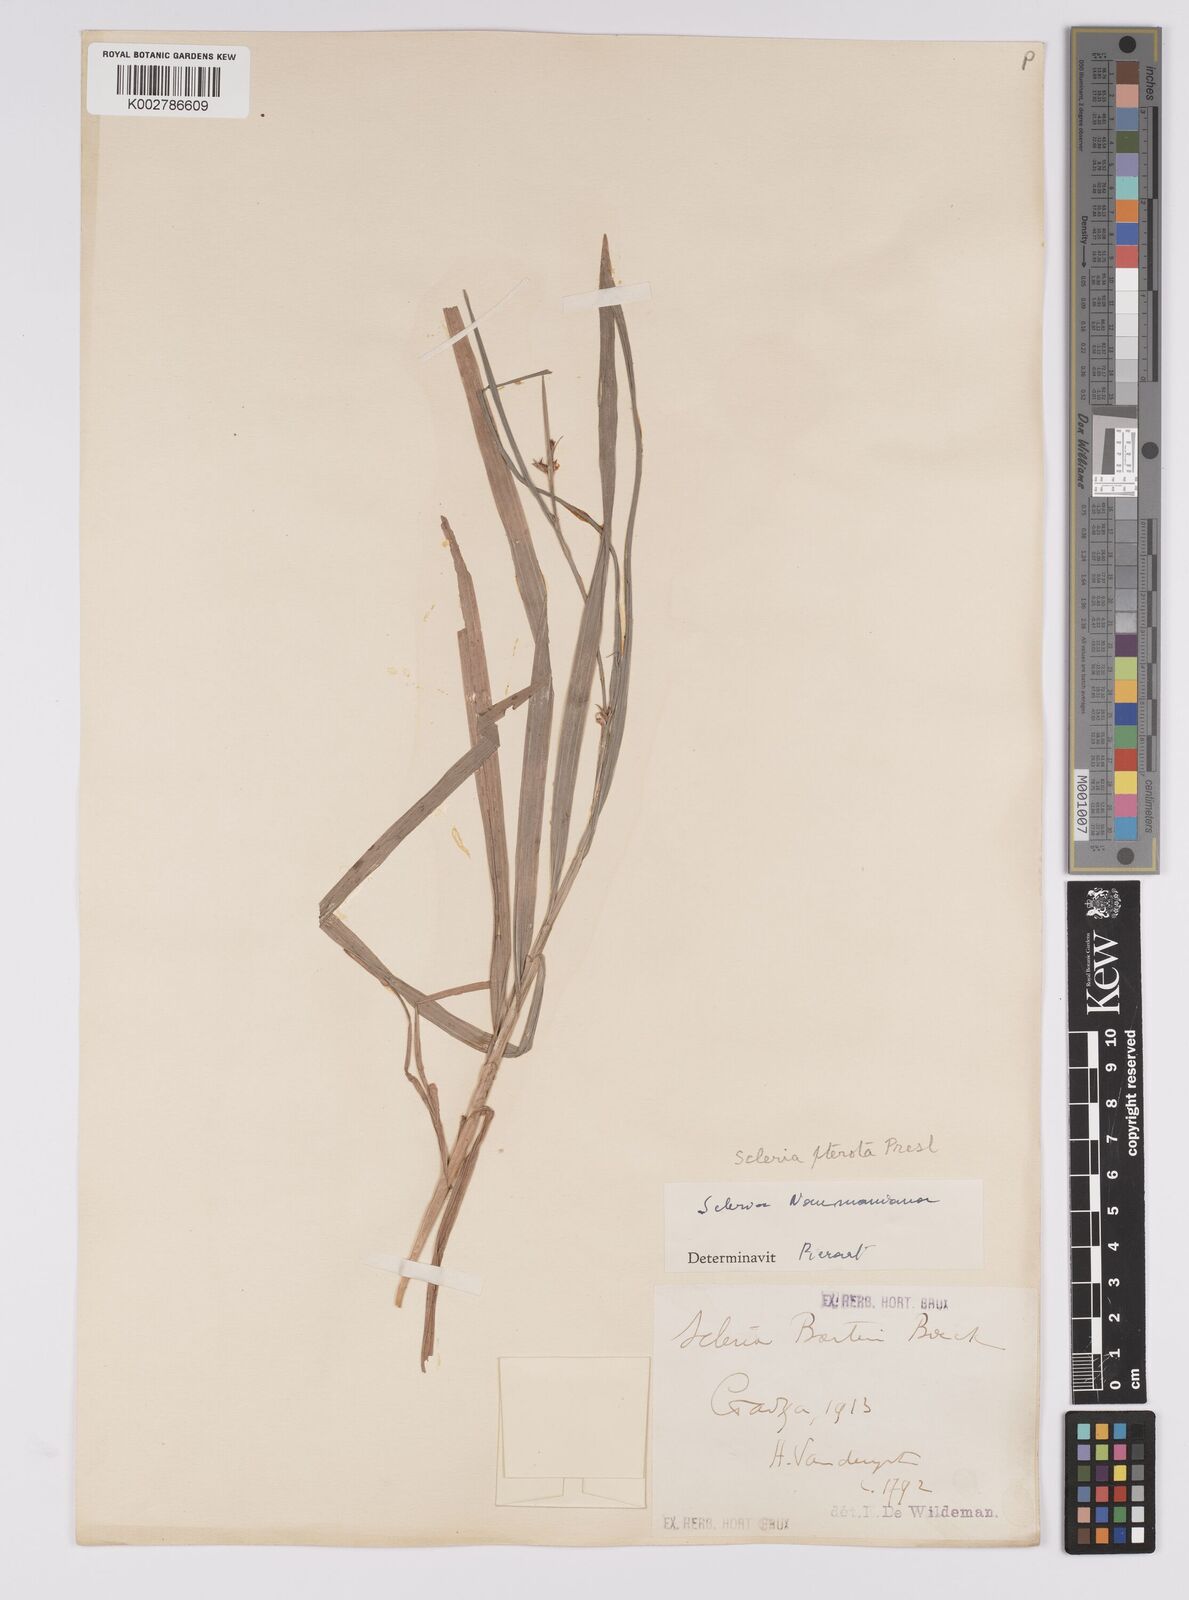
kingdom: Plantae
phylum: Tracheophyta
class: Liliopsida
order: Poales
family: Cyperaceae
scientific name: Cyperaceae
